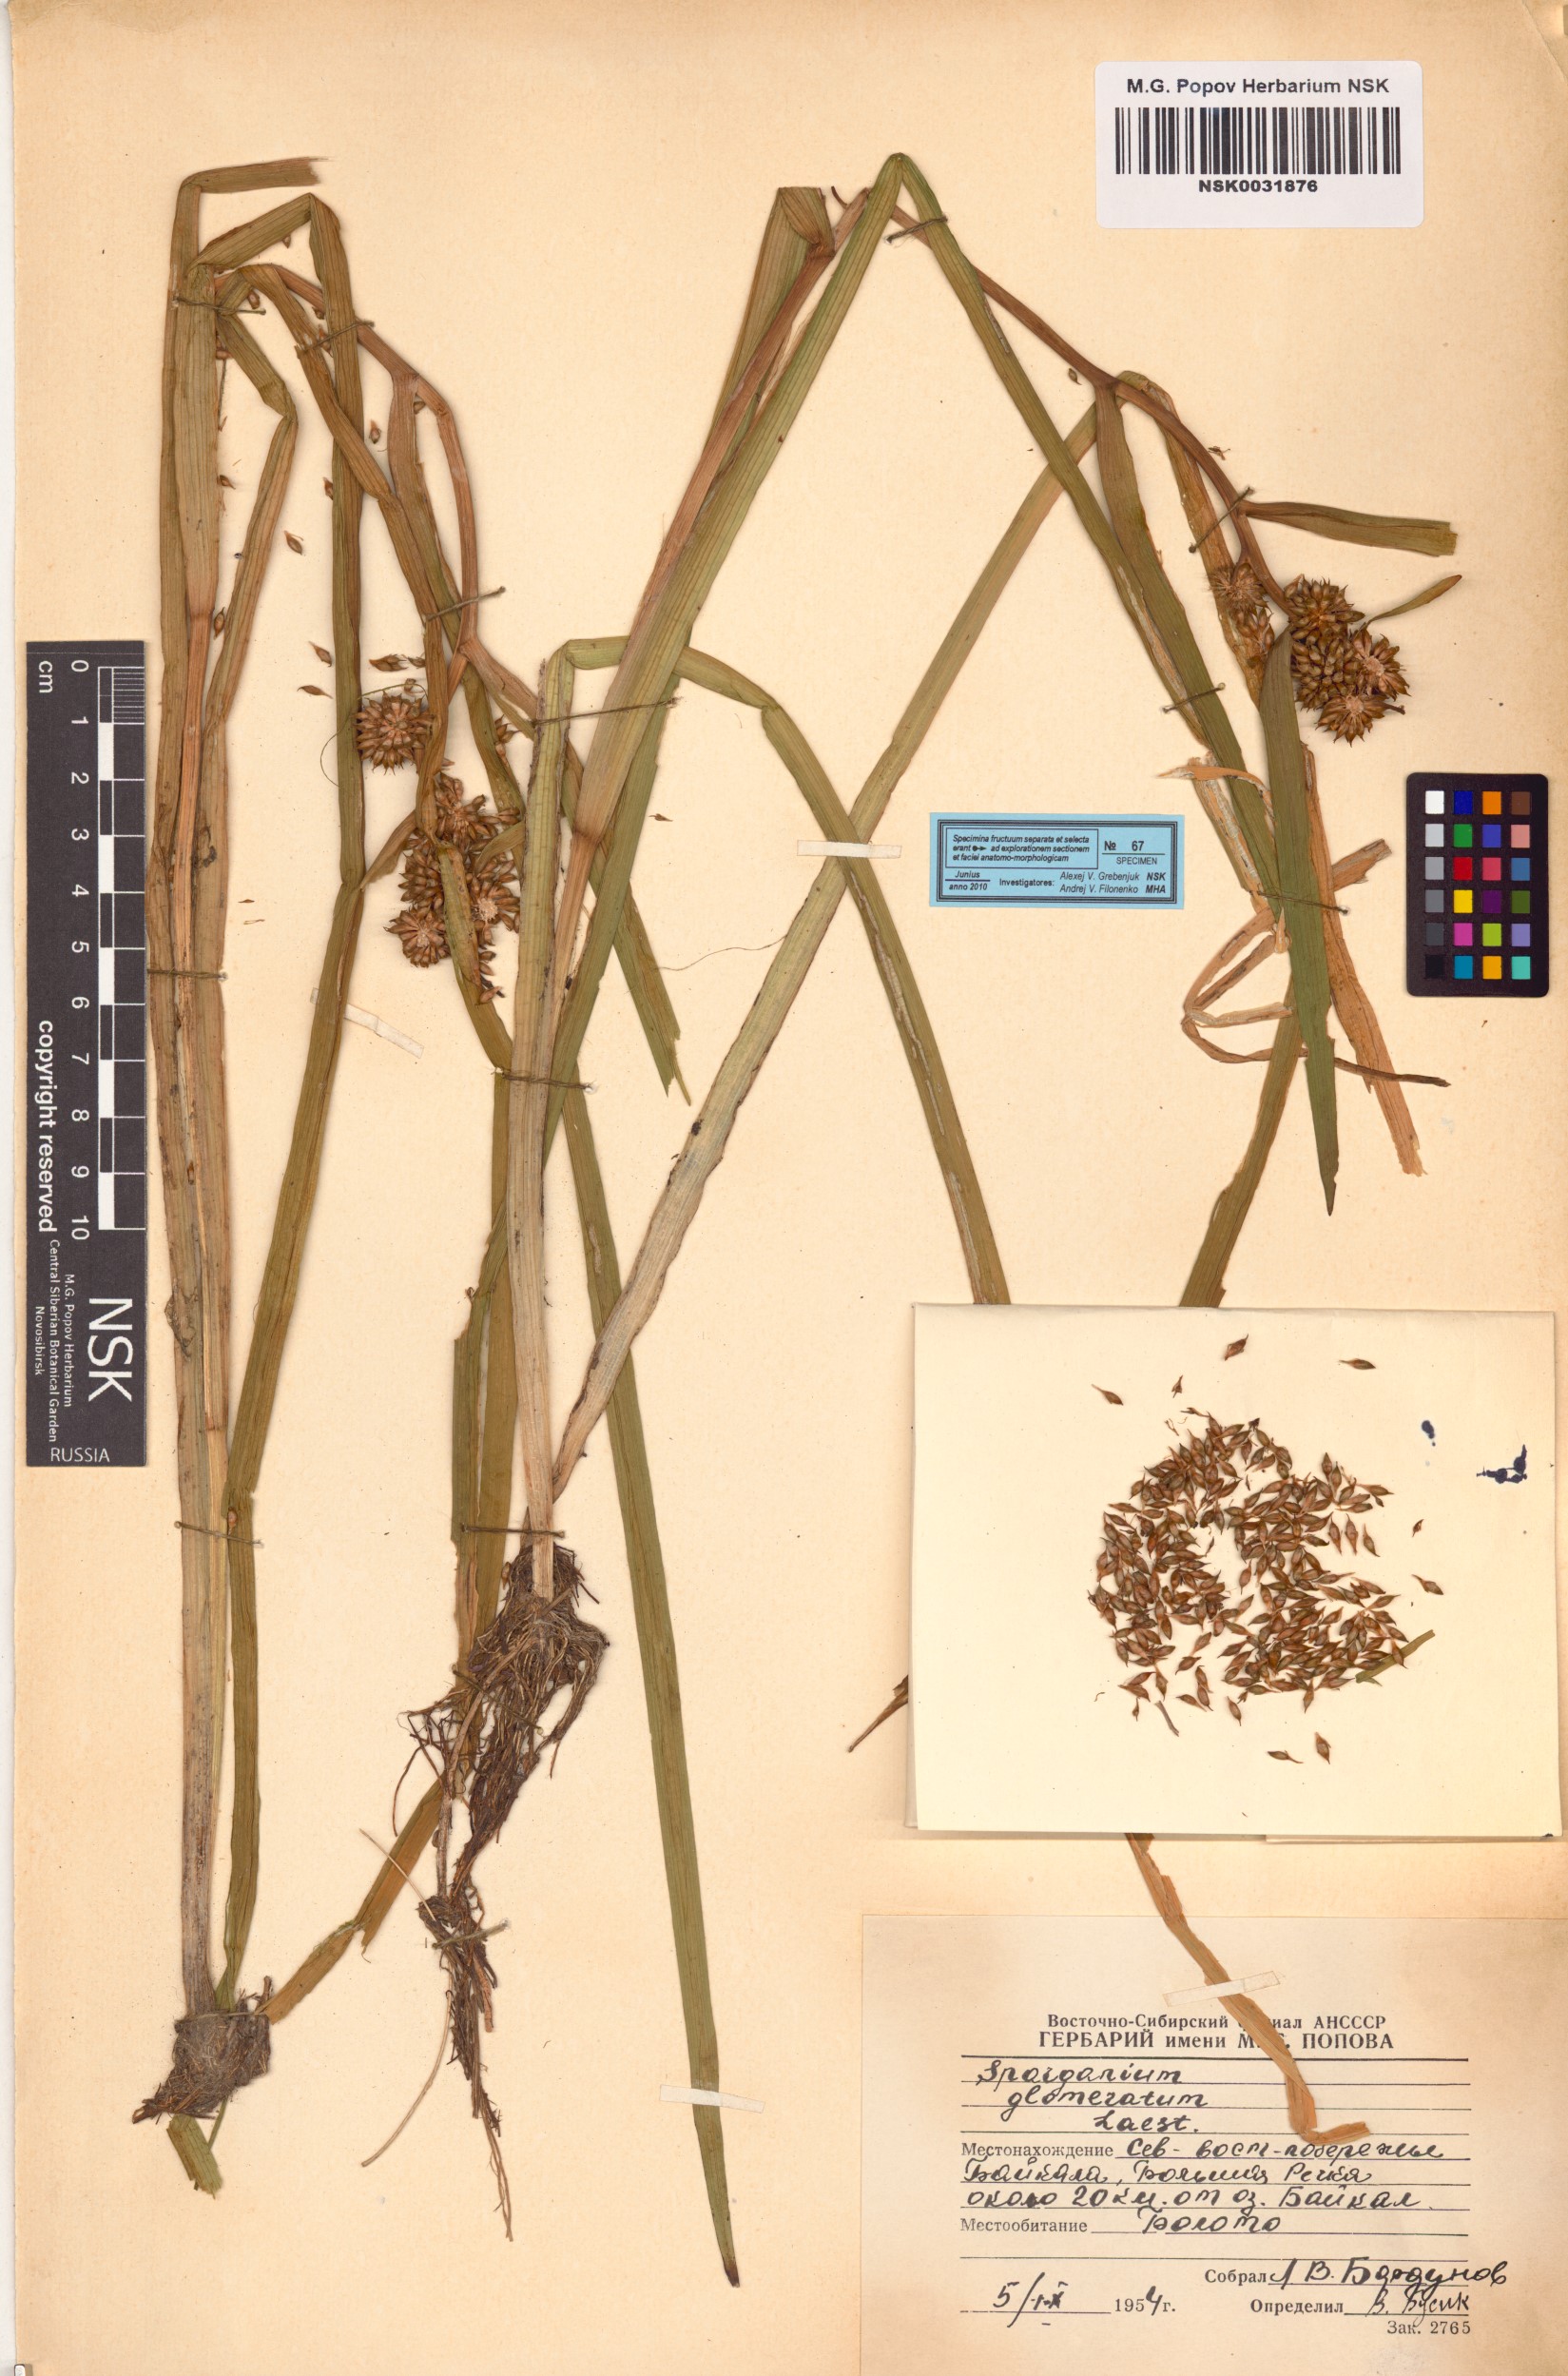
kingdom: Plantae
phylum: Tracheophyta
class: Liliopsida
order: Poales
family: Typhaceae
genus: Sparganium
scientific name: Sparganium glomeratum
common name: Clustered burreed
